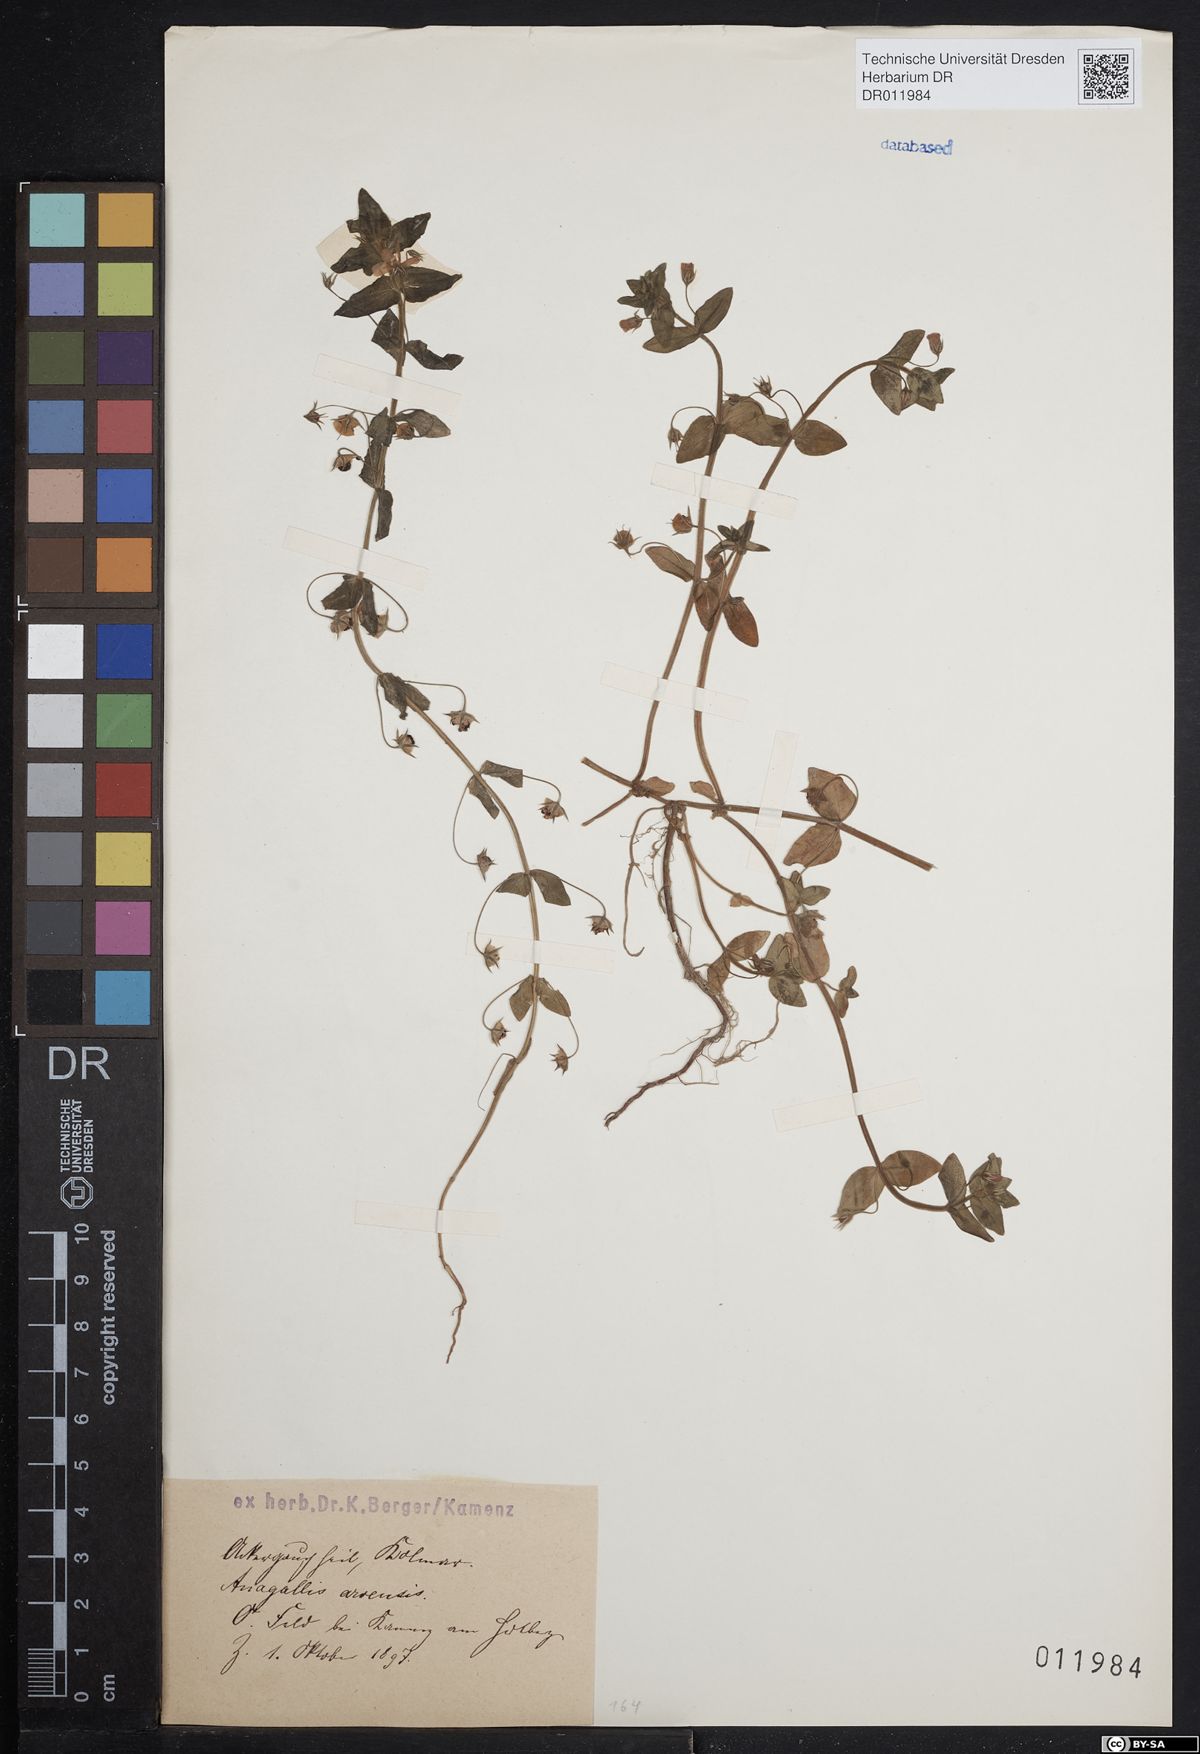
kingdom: Plantae
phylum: Tracheophyta
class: Magnoliopsida
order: Ericales
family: Primulaceae
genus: Lysimachia
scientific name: Lysimachia arvensis
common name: Scarlet pimpernel
